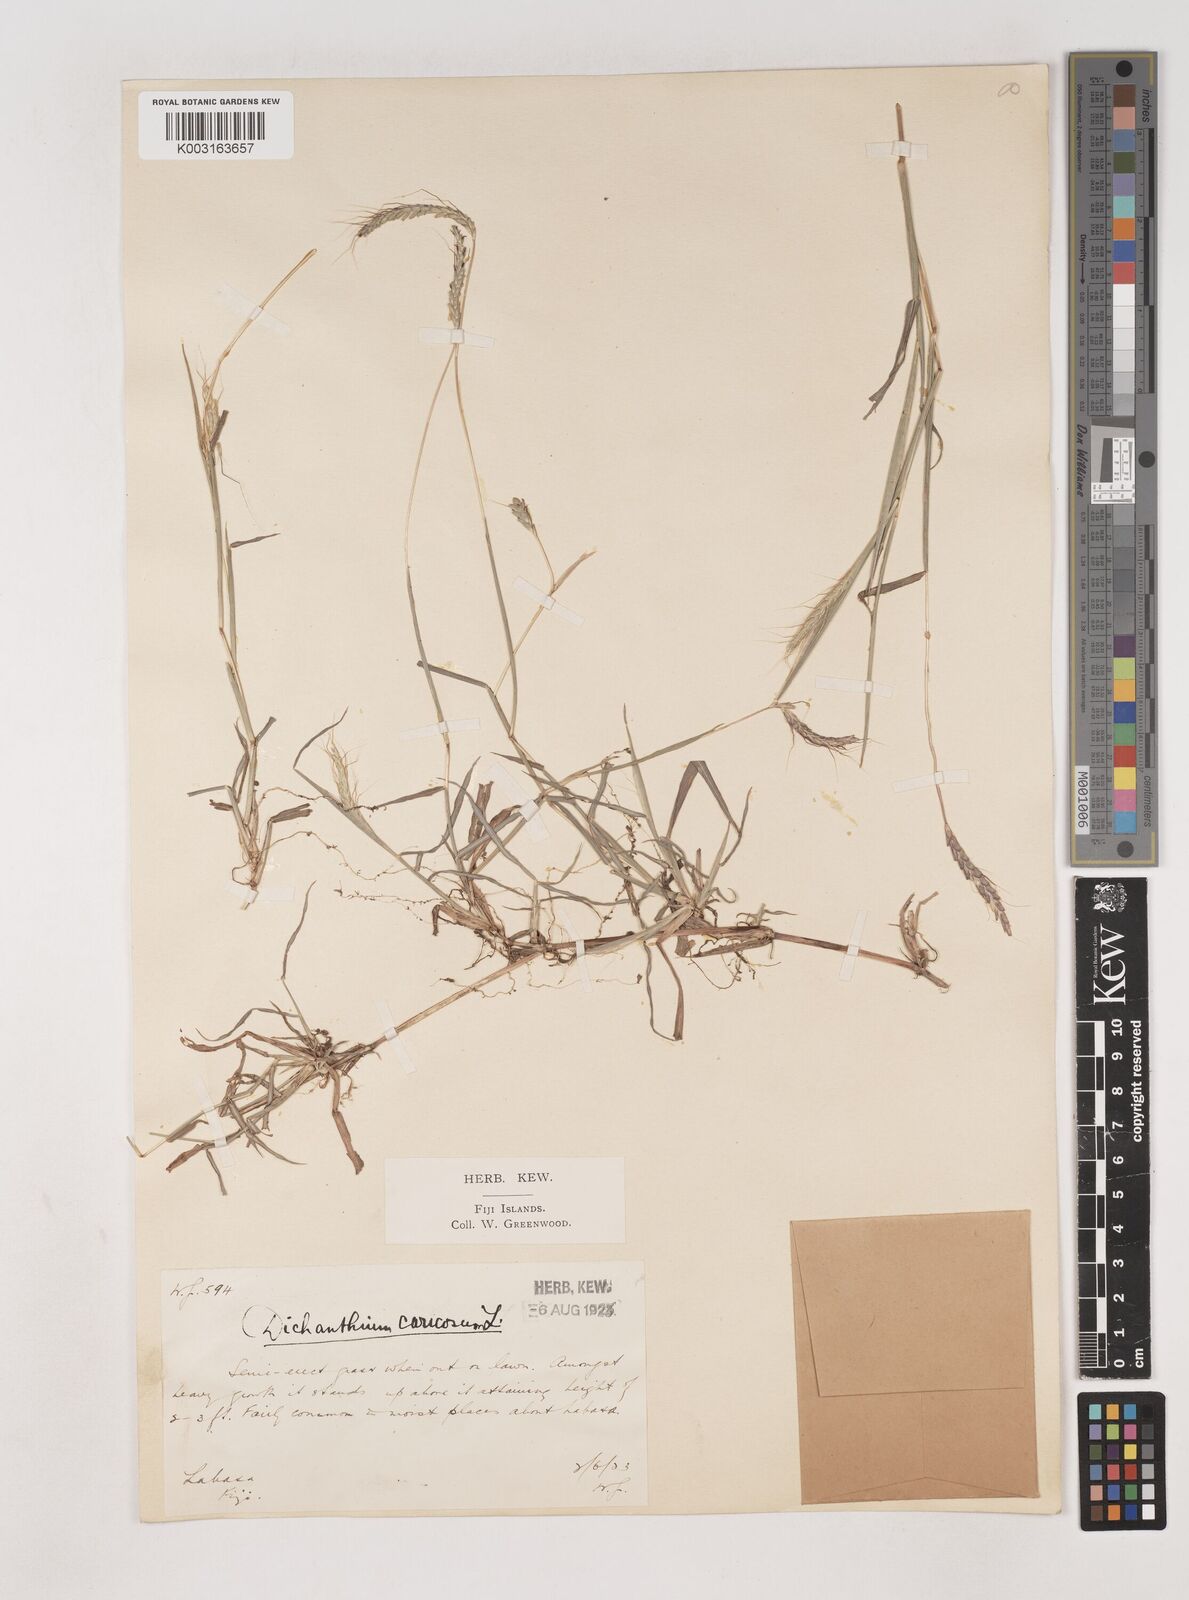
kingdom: Plantae
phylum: Tracheophyta
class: Liliopsida
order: Poales
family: Poaceae
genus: Dichanthium
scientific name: Dichanthium caricosum
